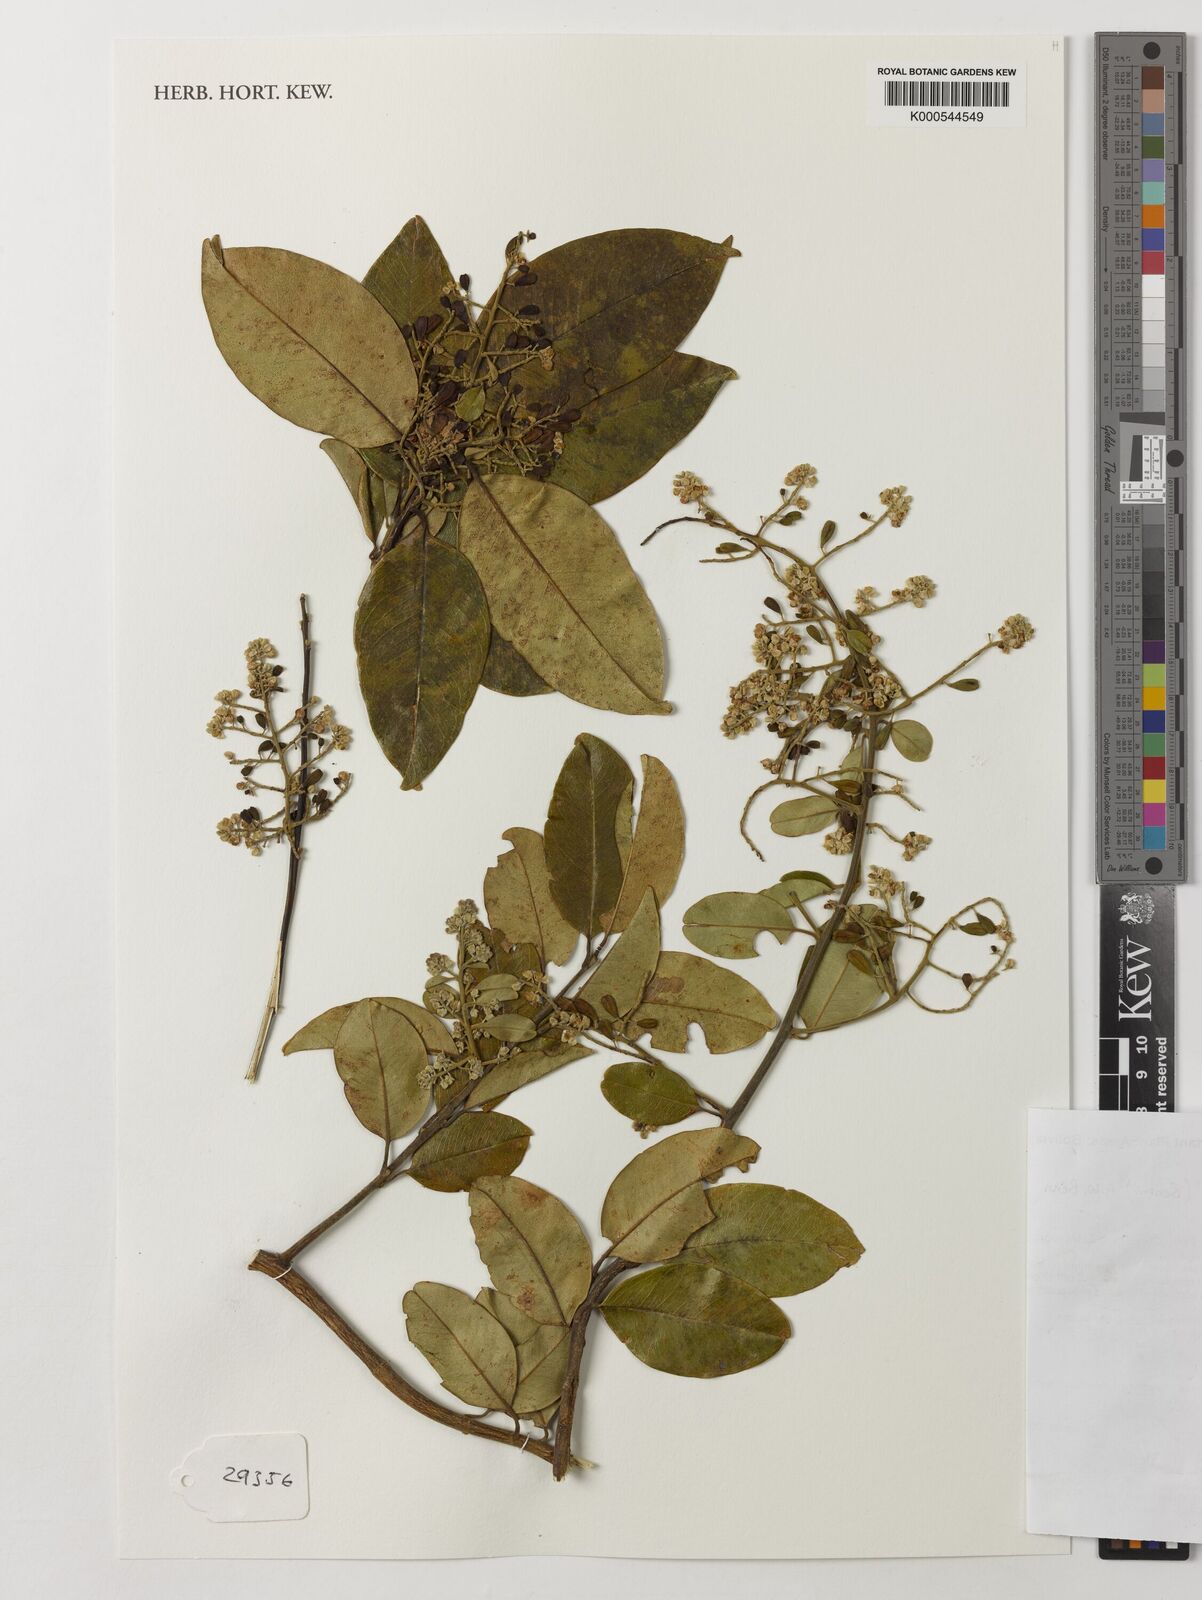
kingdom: Plantae
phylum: Tracheophyta
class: Magnoliopsida
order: Fabales
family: Polygalaceae
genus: Bredemeyera
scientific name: Bredemeyera lucida
